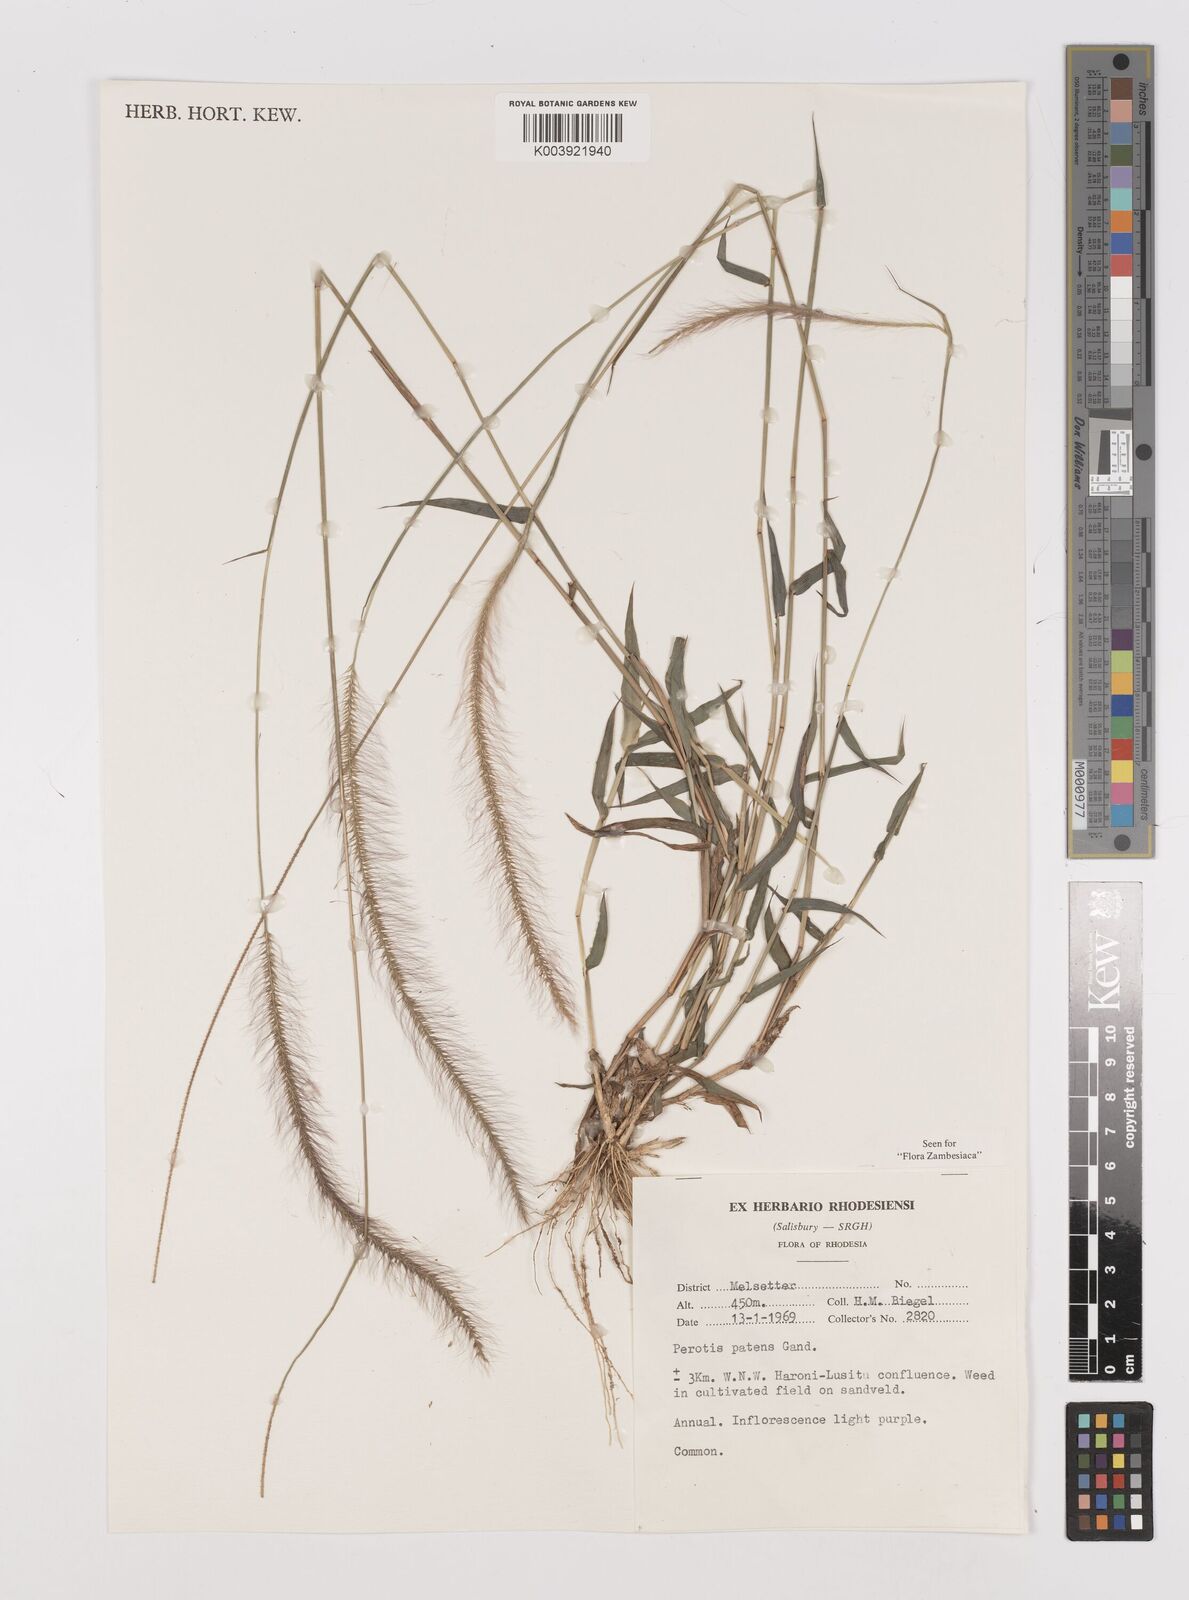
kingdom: Plantae
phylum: Tracheophyta
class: Liliopsida
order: Poales
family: Poaceae
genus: Perotis
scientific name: Perotis patens
